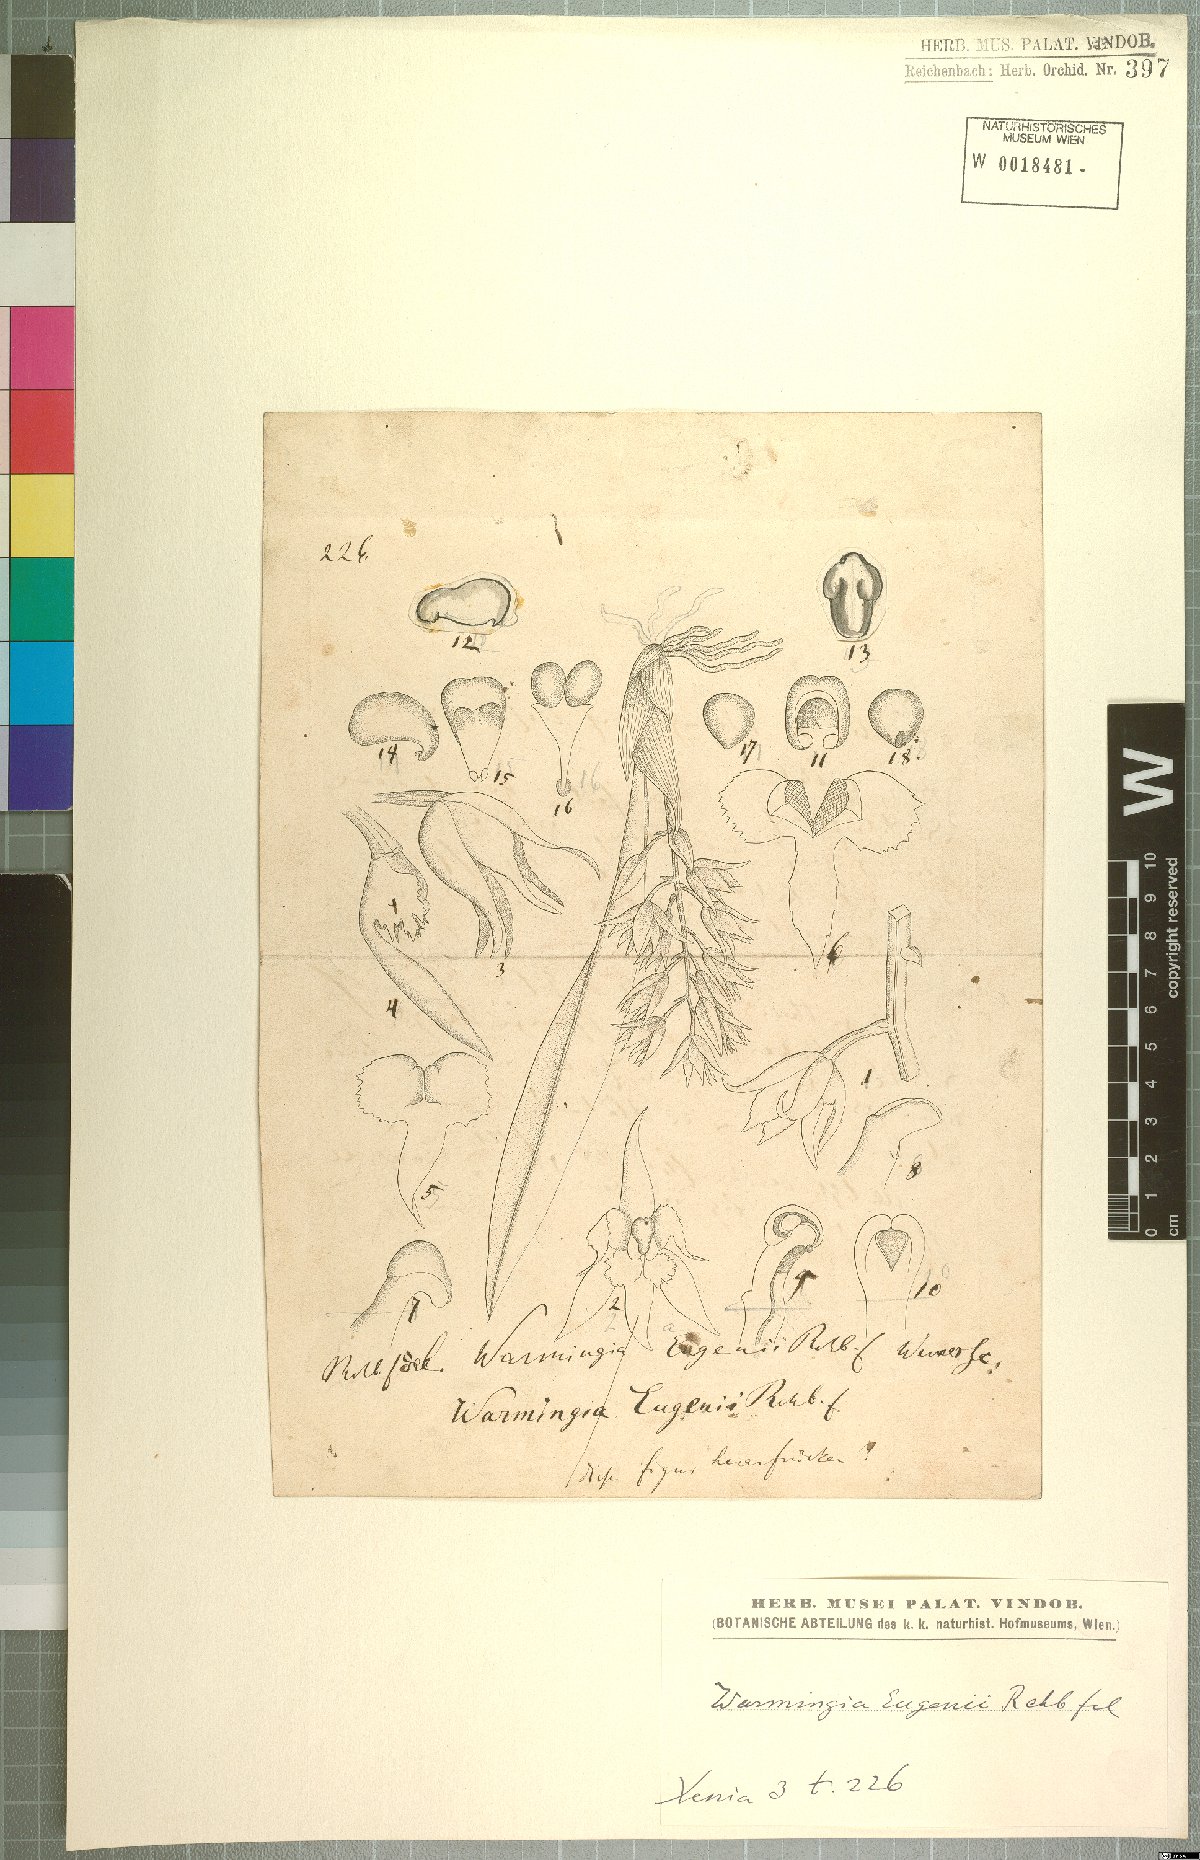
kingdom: Plantae
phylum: Tracheophyta
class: Liliopsida
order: Asparagales
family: Orchidaceae
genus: Warmingia
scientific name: Warmingia eugenii
